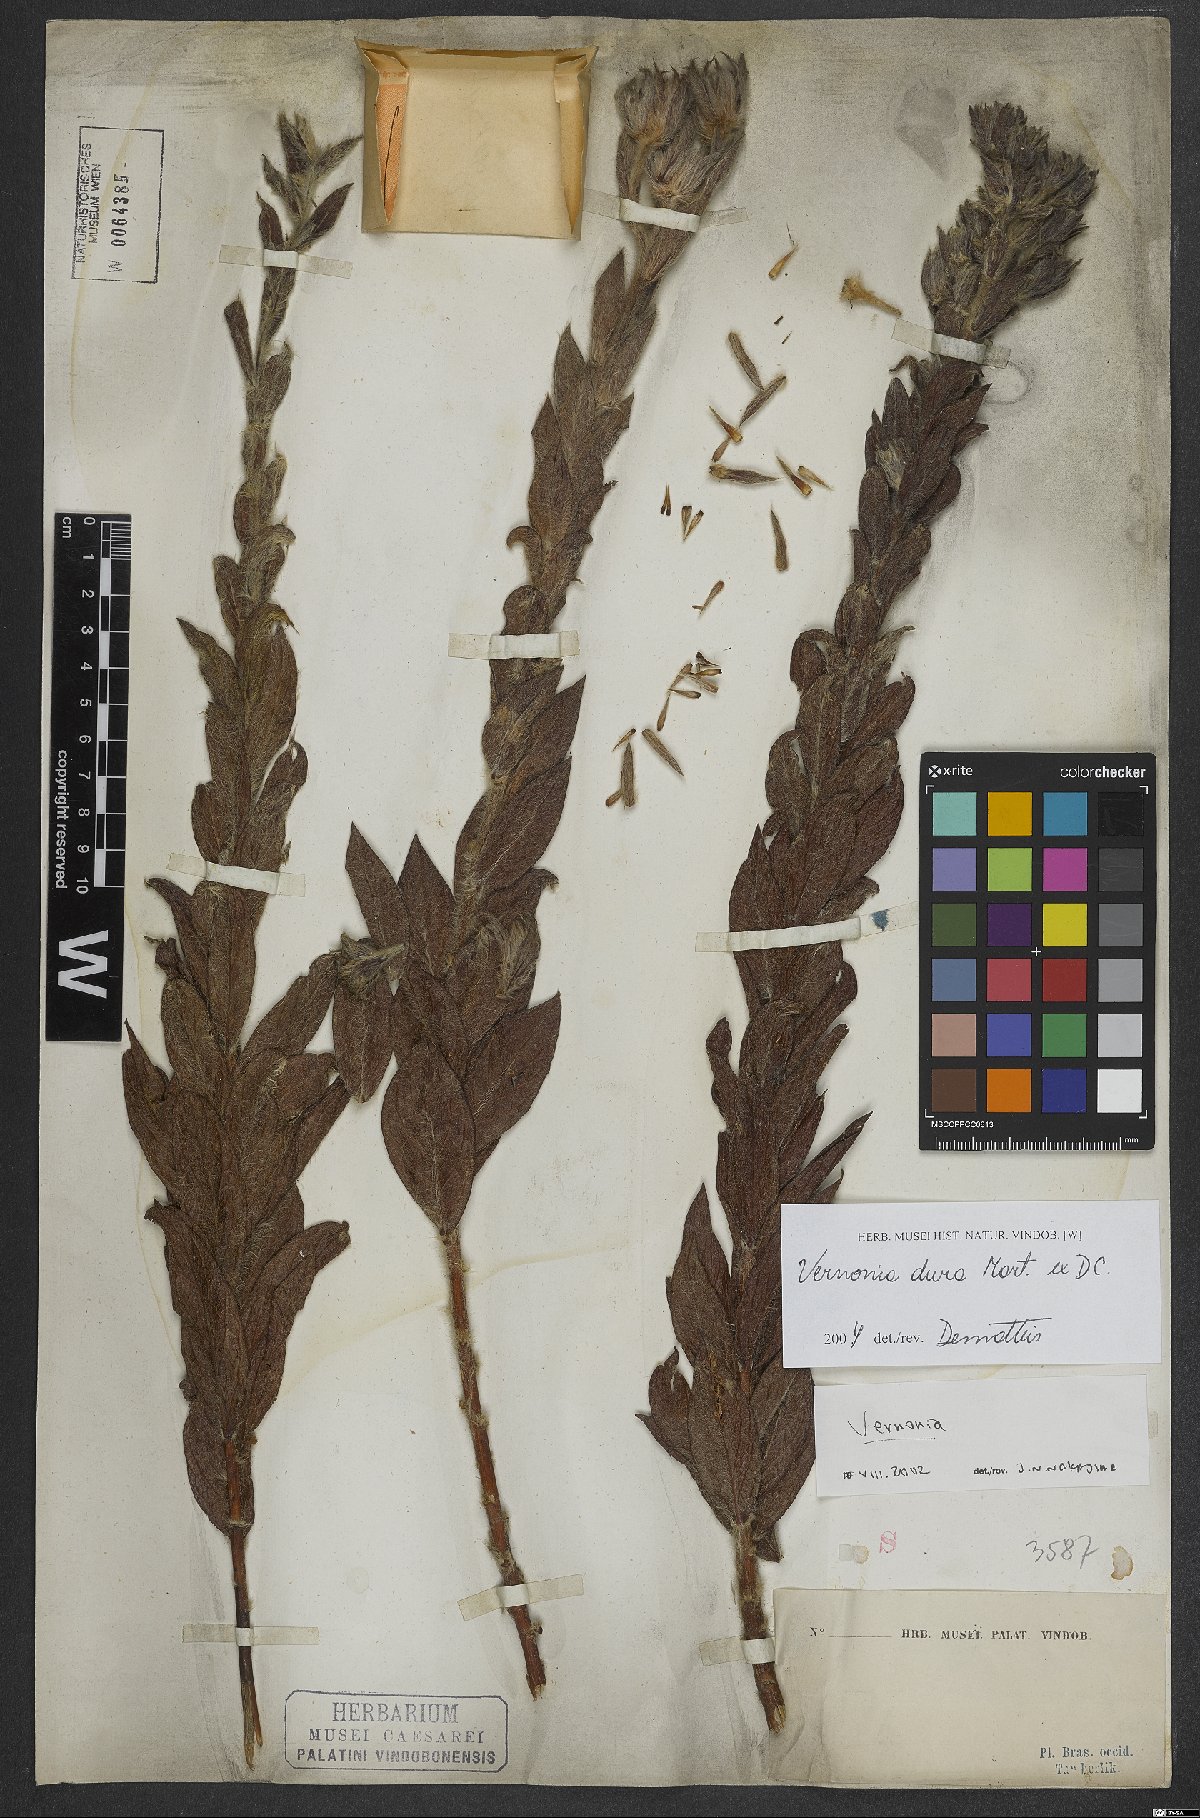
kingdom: Plantae
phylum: Tracheophyta
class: Magnoliopsida
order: Asterales
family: Asteraceae
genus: Lessingianthus
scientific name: Lessingianthus durus
